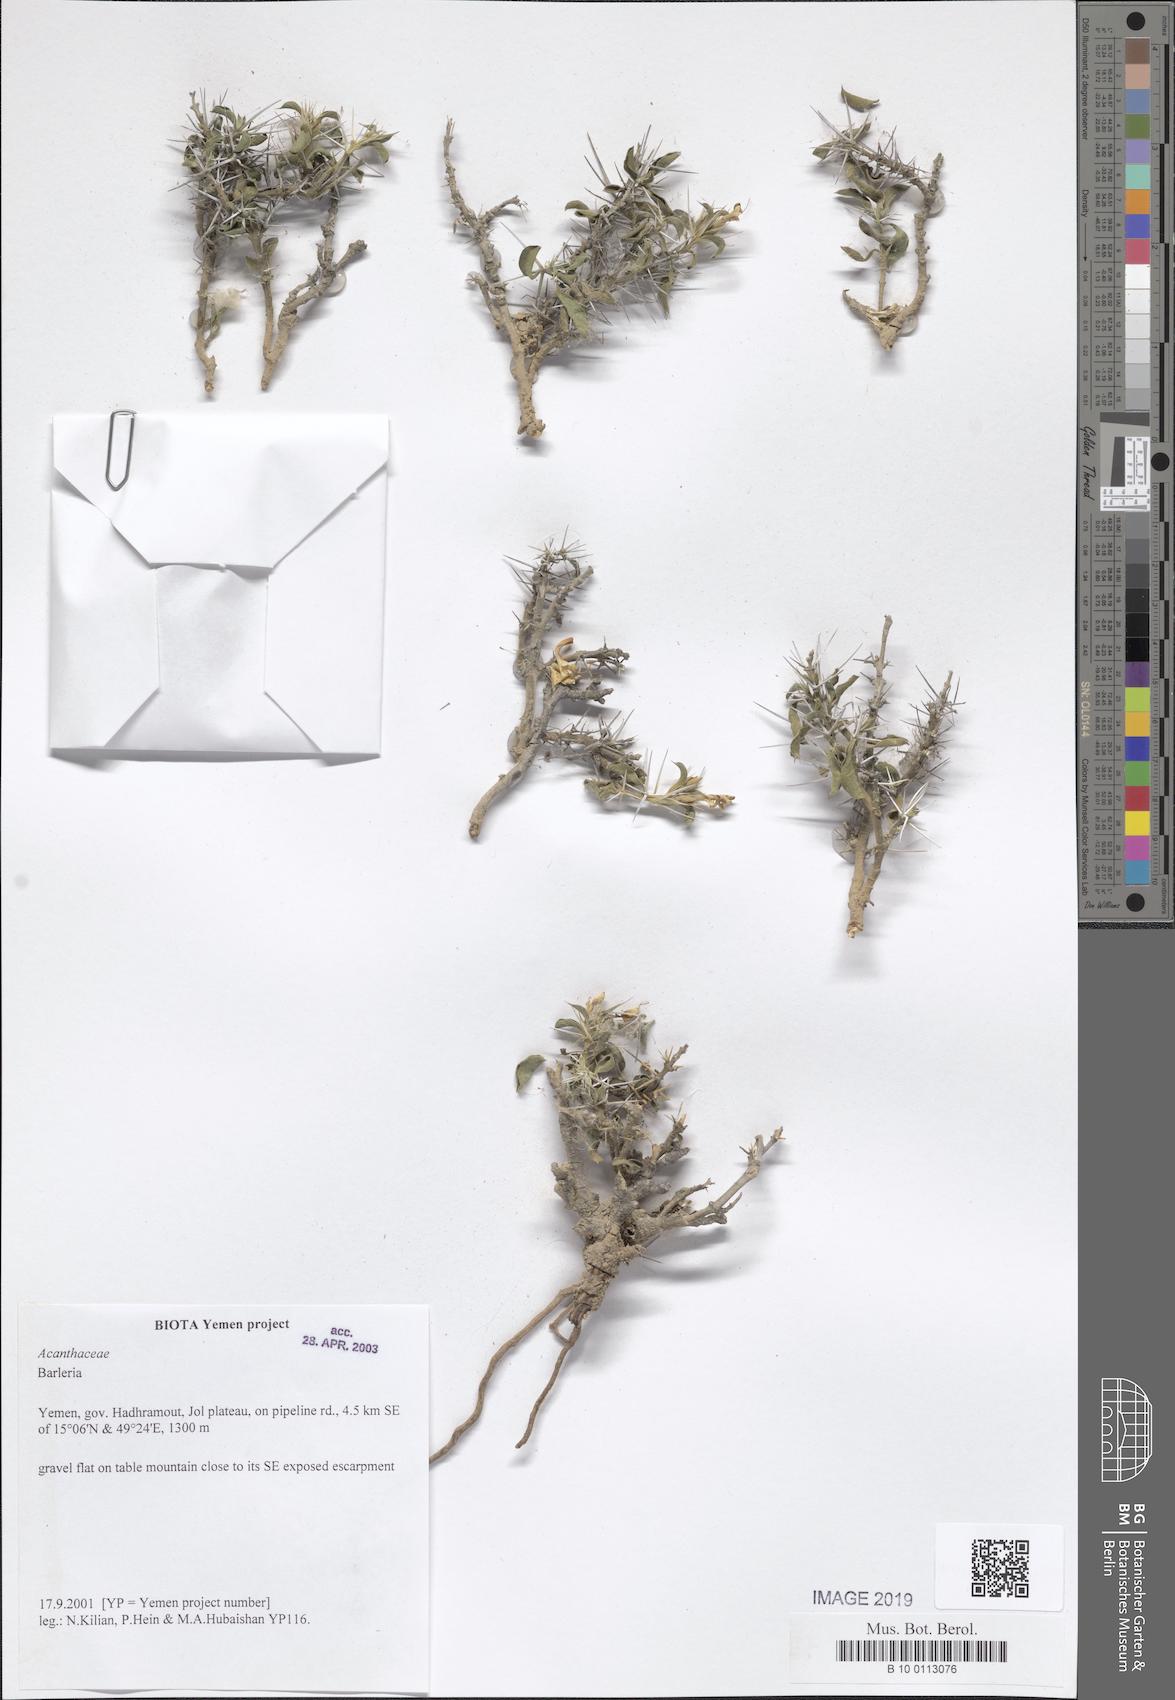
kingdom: Plantae
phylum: Tracheophyta
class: Magnoliopsida
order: Lamiales
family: Acanthaceae
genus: Barleria
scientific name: Barleria
